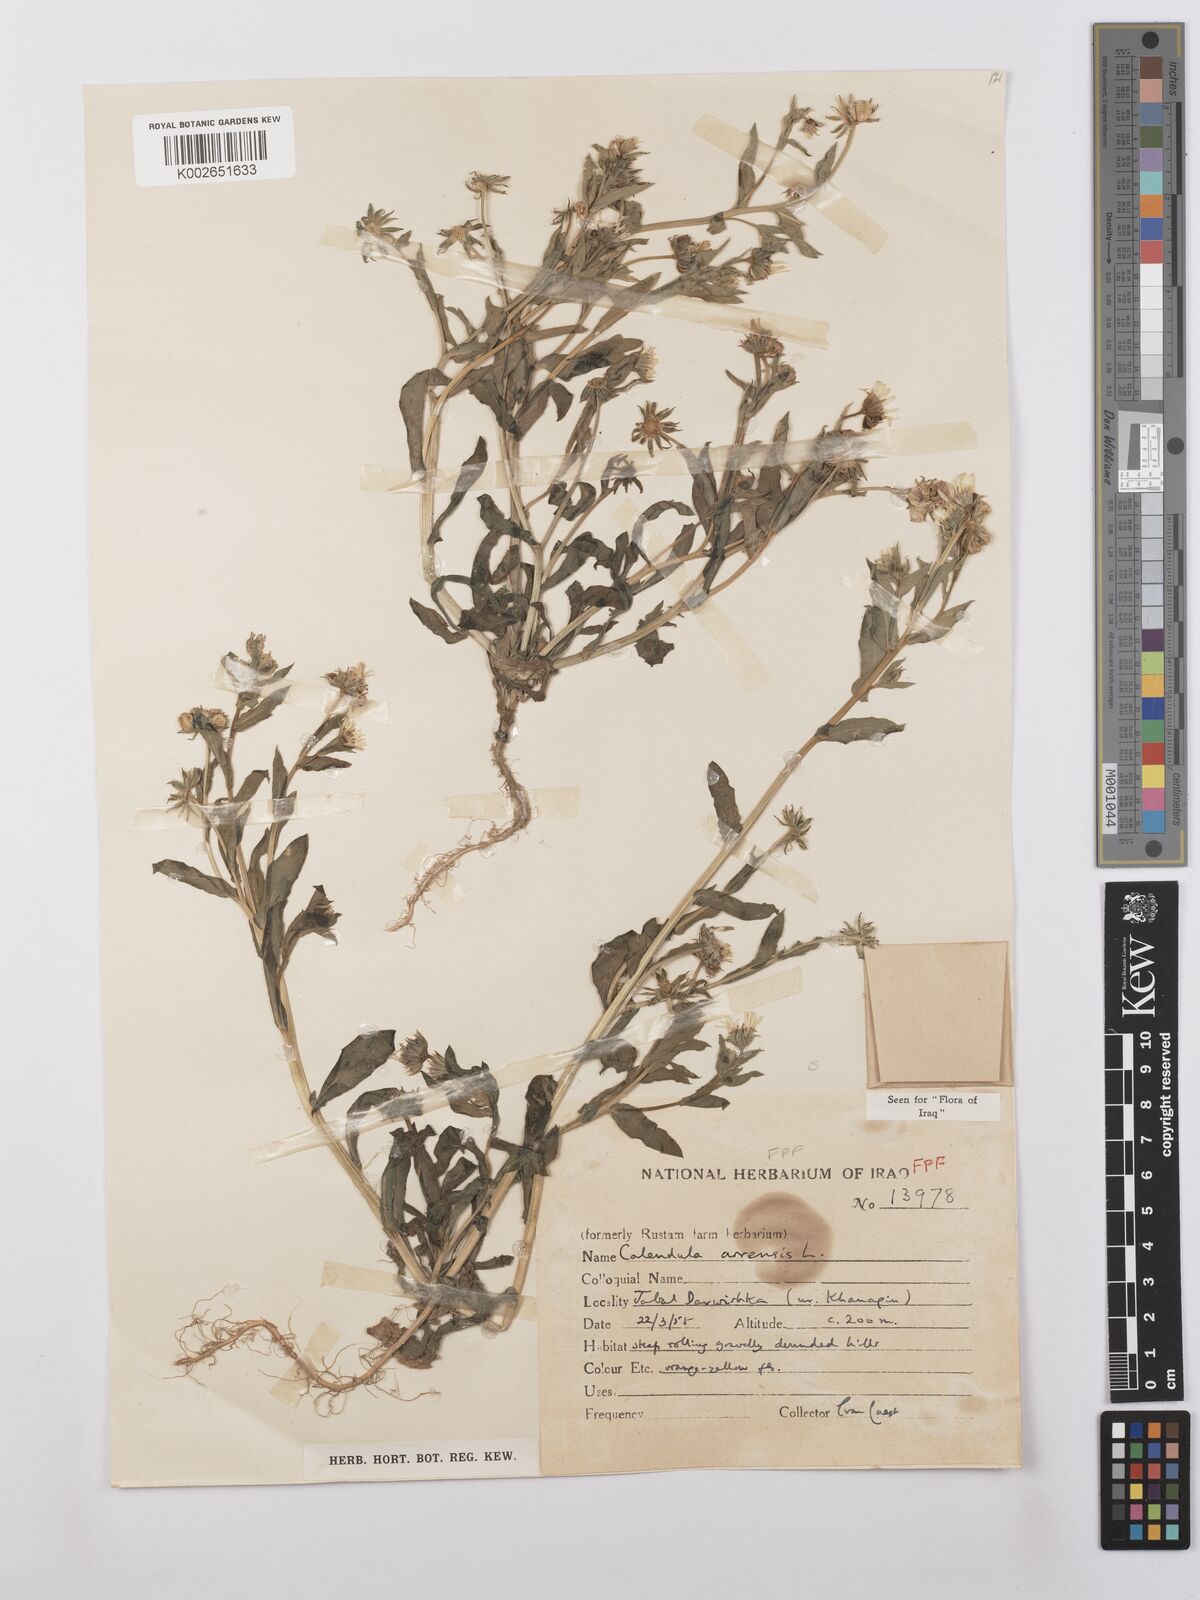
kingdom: Plantae
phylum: Tracheophyta
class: Magnoliopsida
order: Asterales
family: Asteraceae
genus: Calendula
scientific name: Calendula arvensis
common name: Field marigold
